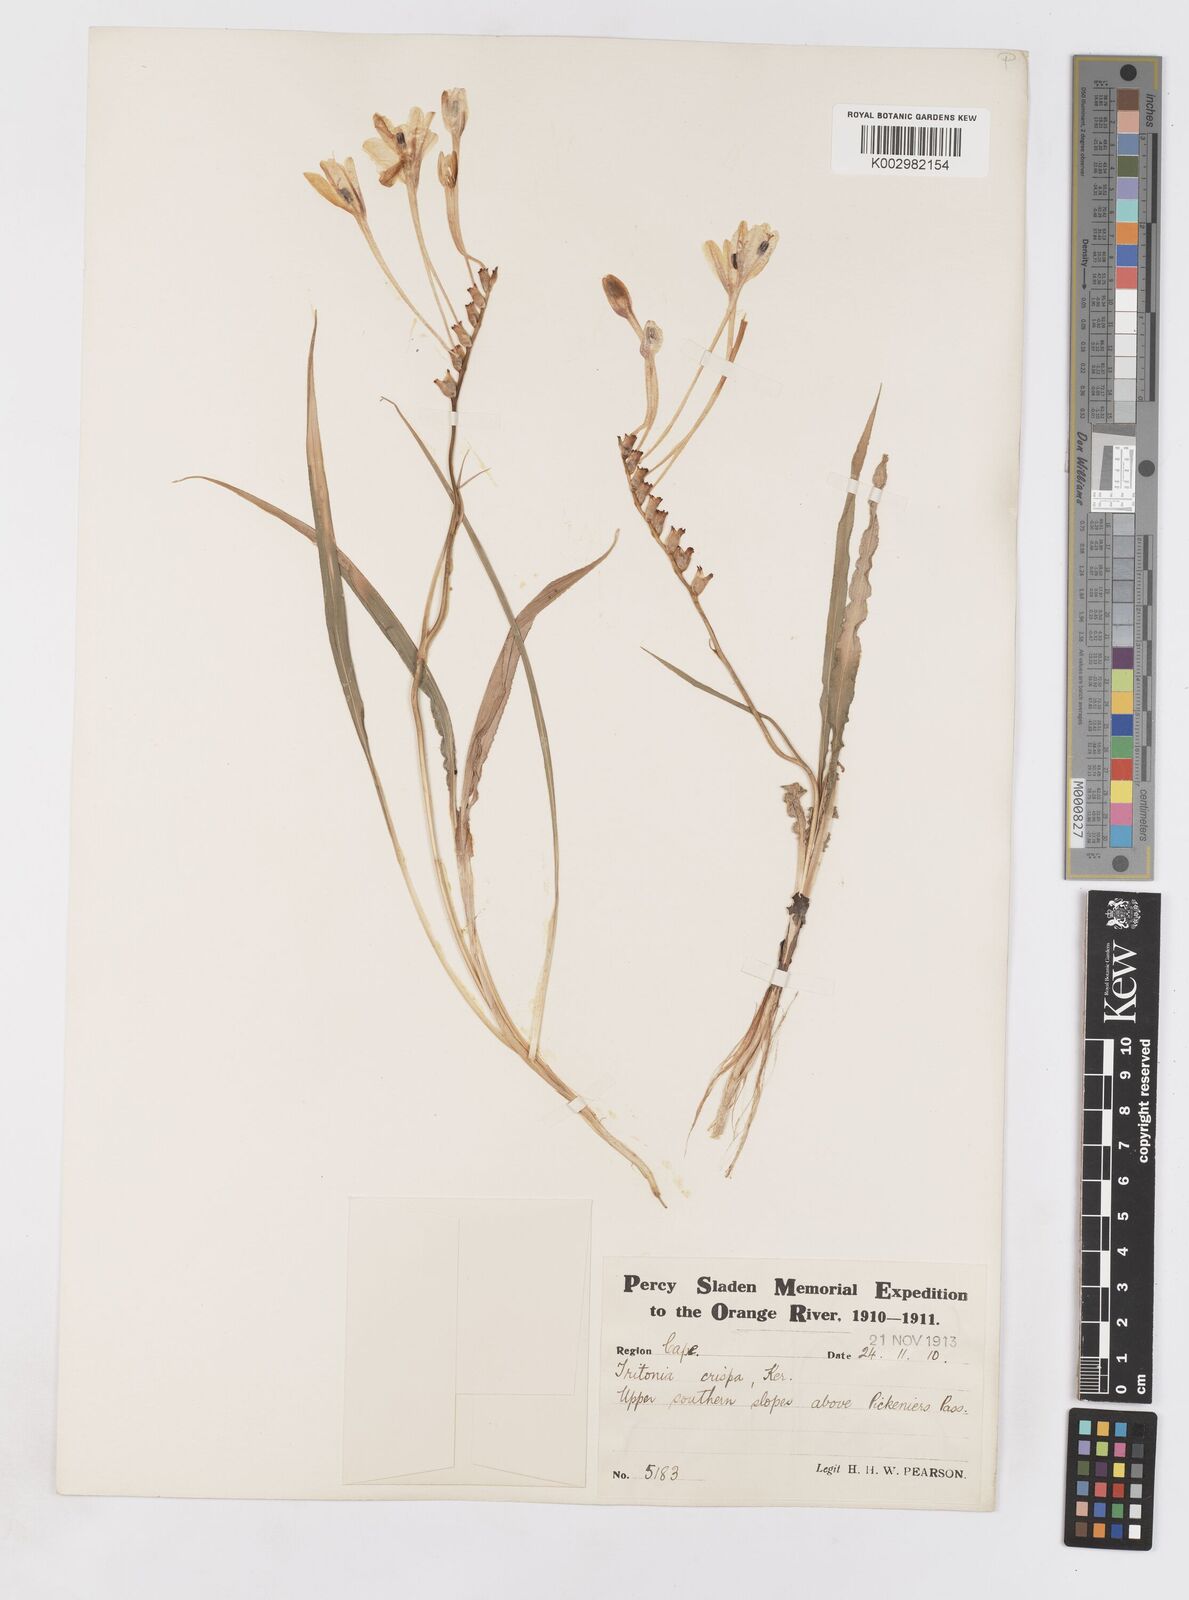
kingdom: Plantae
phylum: Tracheophyta
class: Liliopsida
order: Asparagales
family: Iridaceae
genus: Tritonia
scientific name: Tritonia undulata
